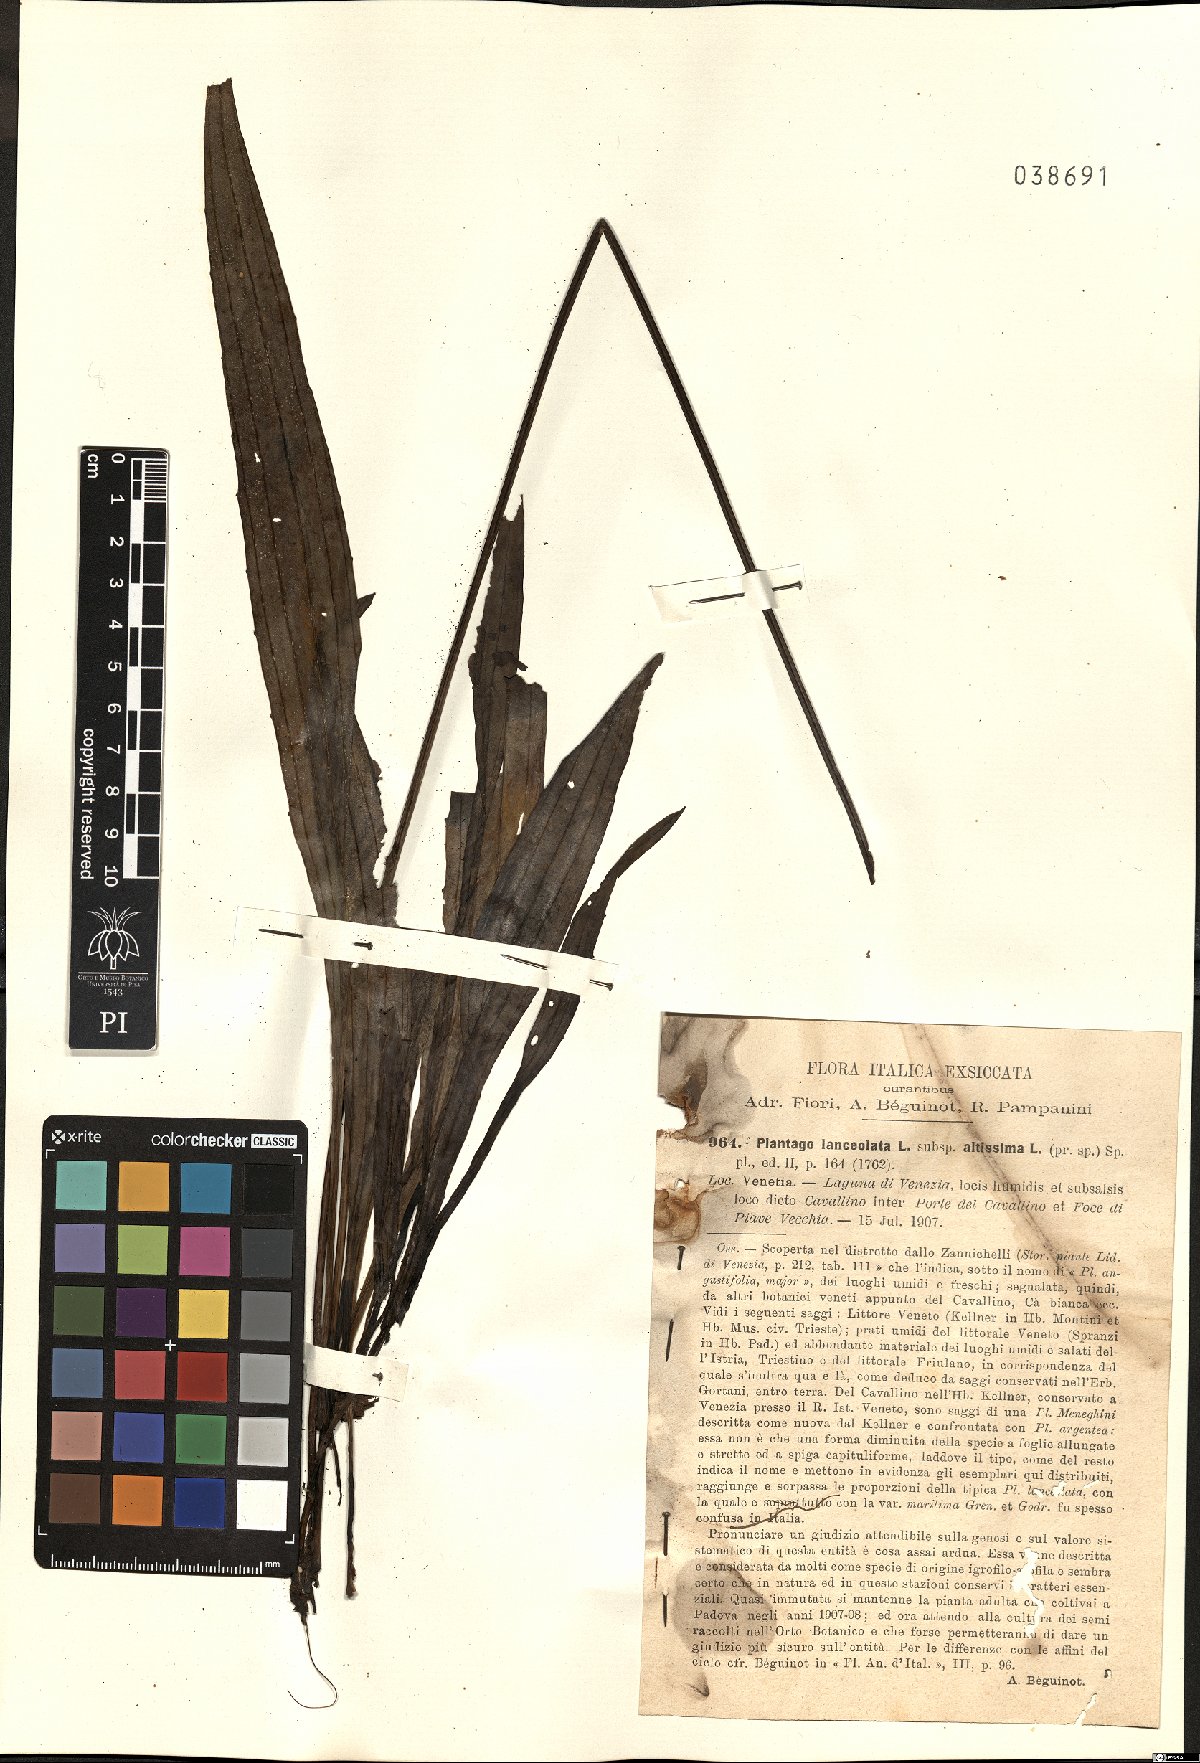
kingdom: Plantae
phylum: Tracheophyta
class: Magnoliopsida
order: Lamiales
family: Plantaginaceae
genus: Plantago
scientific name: Plantago altissima
